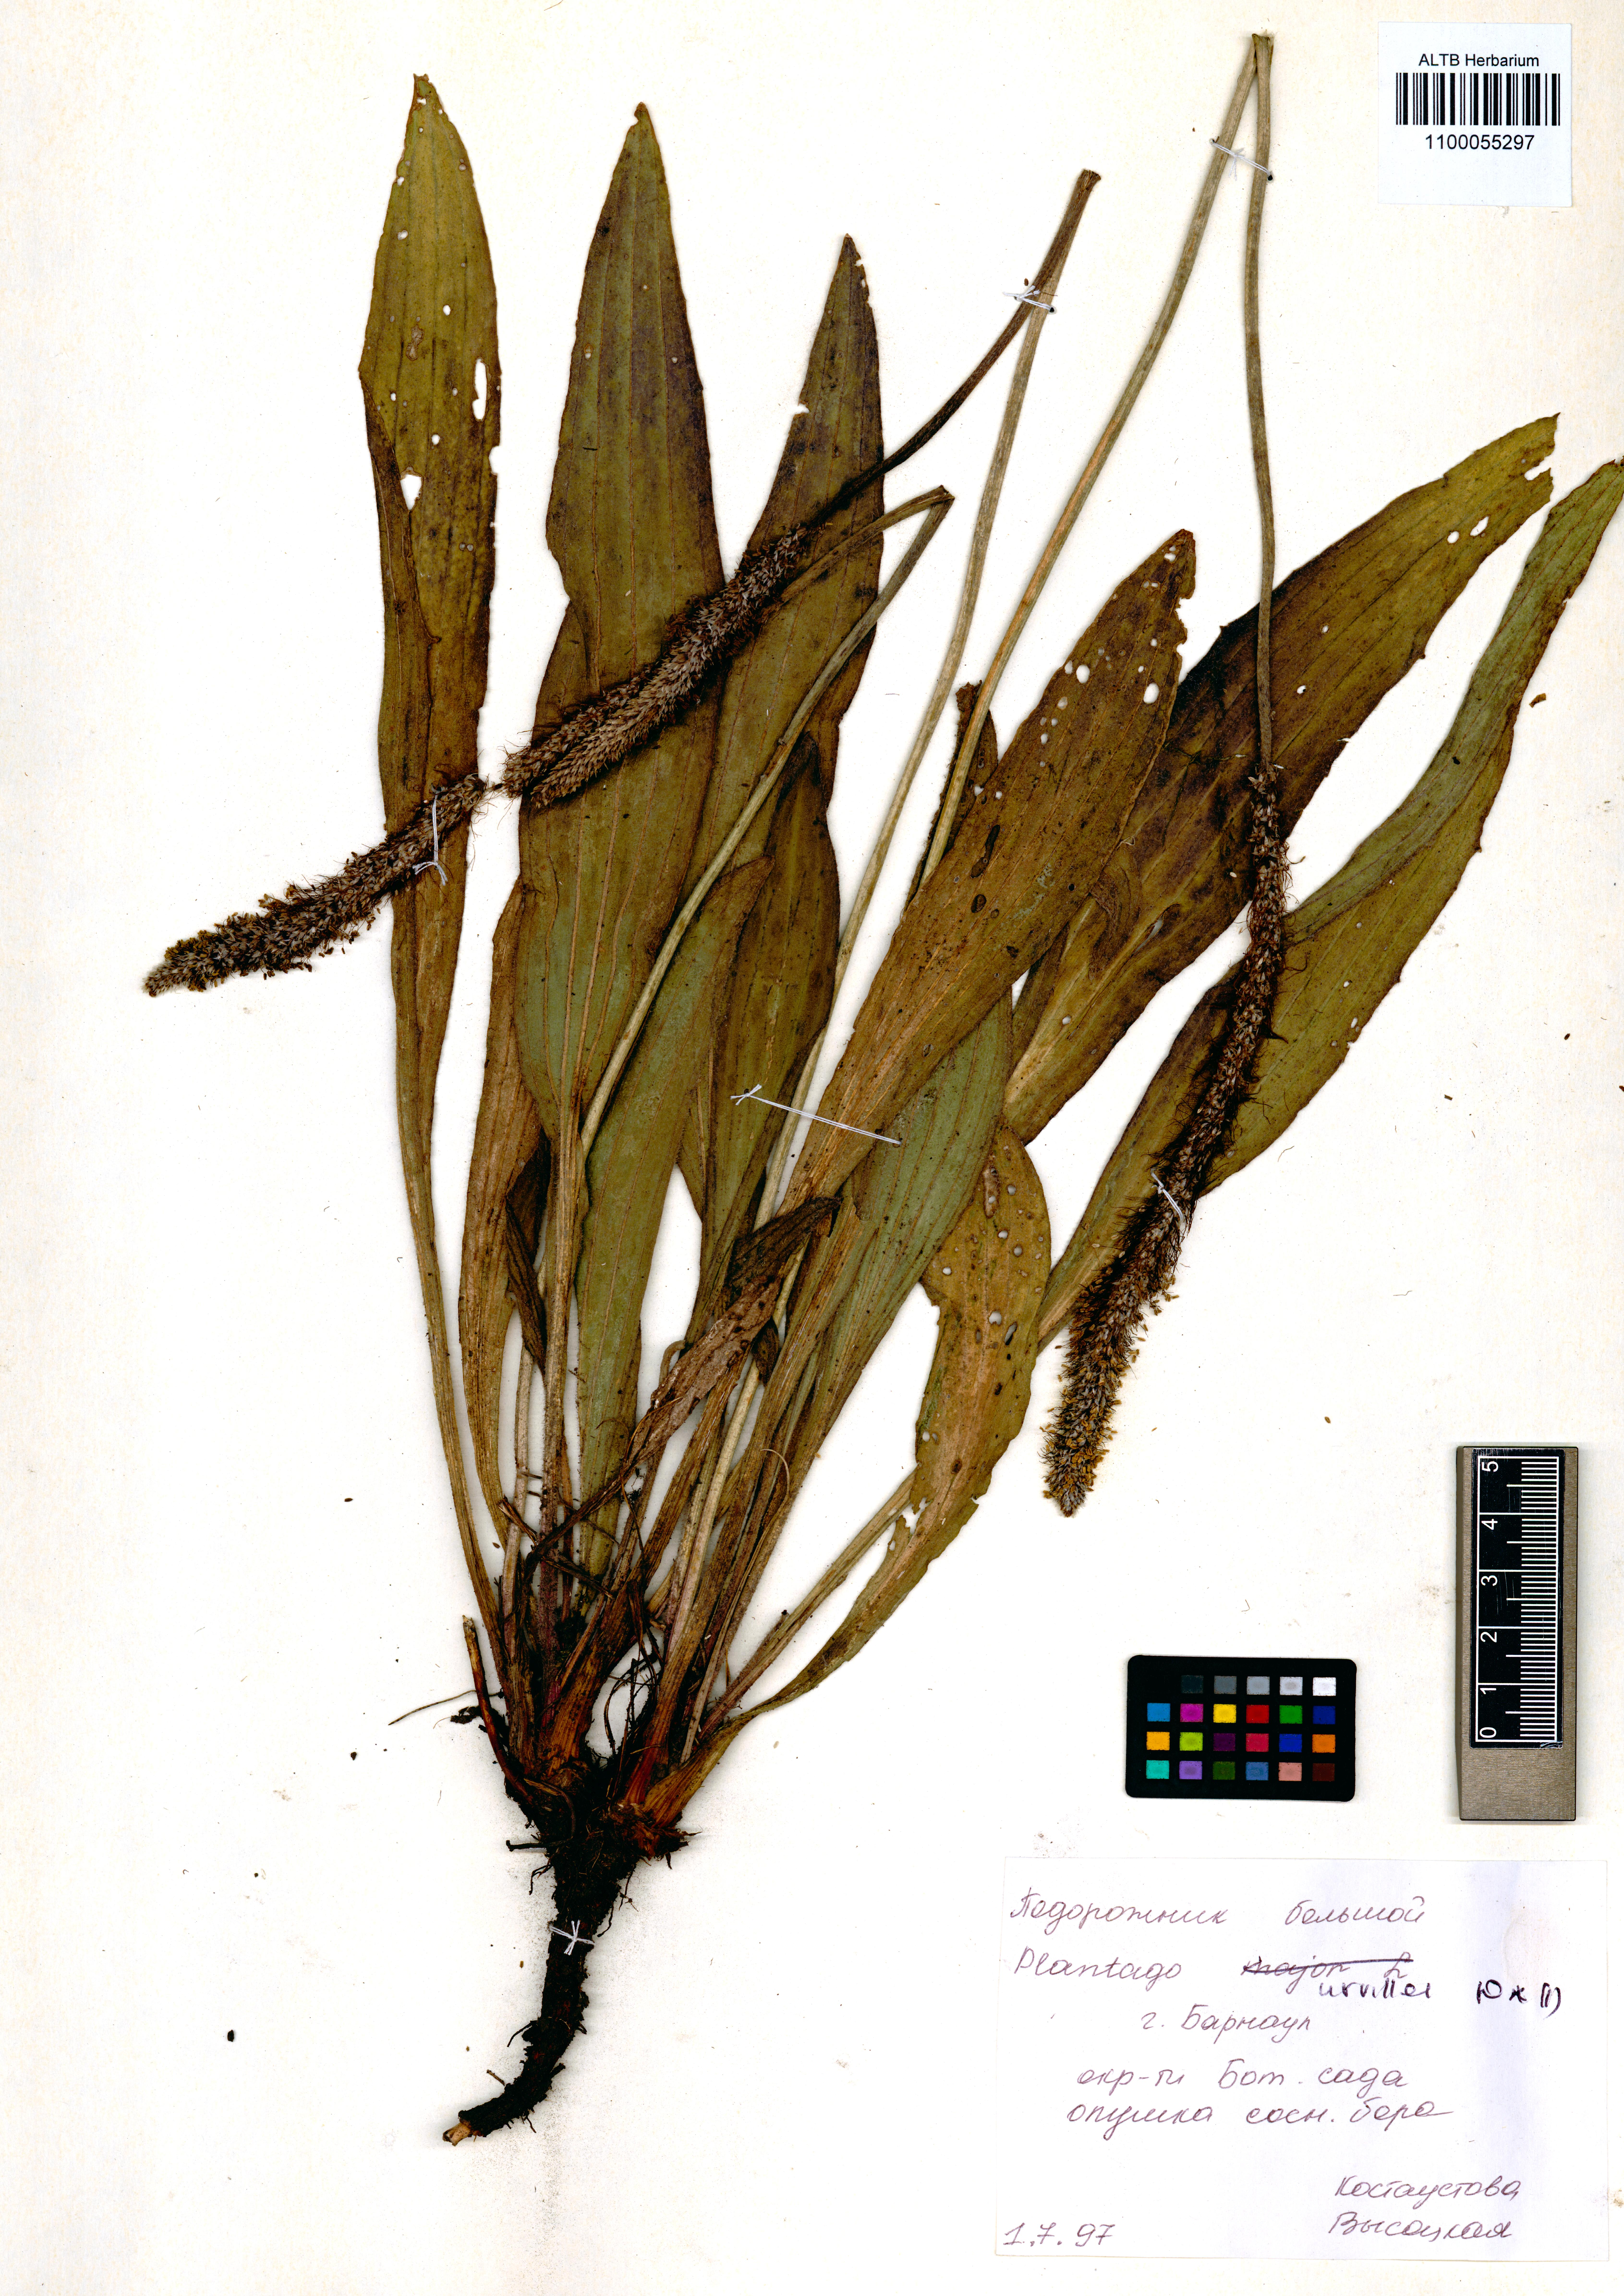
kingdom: Plantae
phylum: Tracheophyta
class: Magnoliopsida
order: Lamiales
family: Plantaginaceae
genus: Plantago
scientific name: Plantago urvillei
